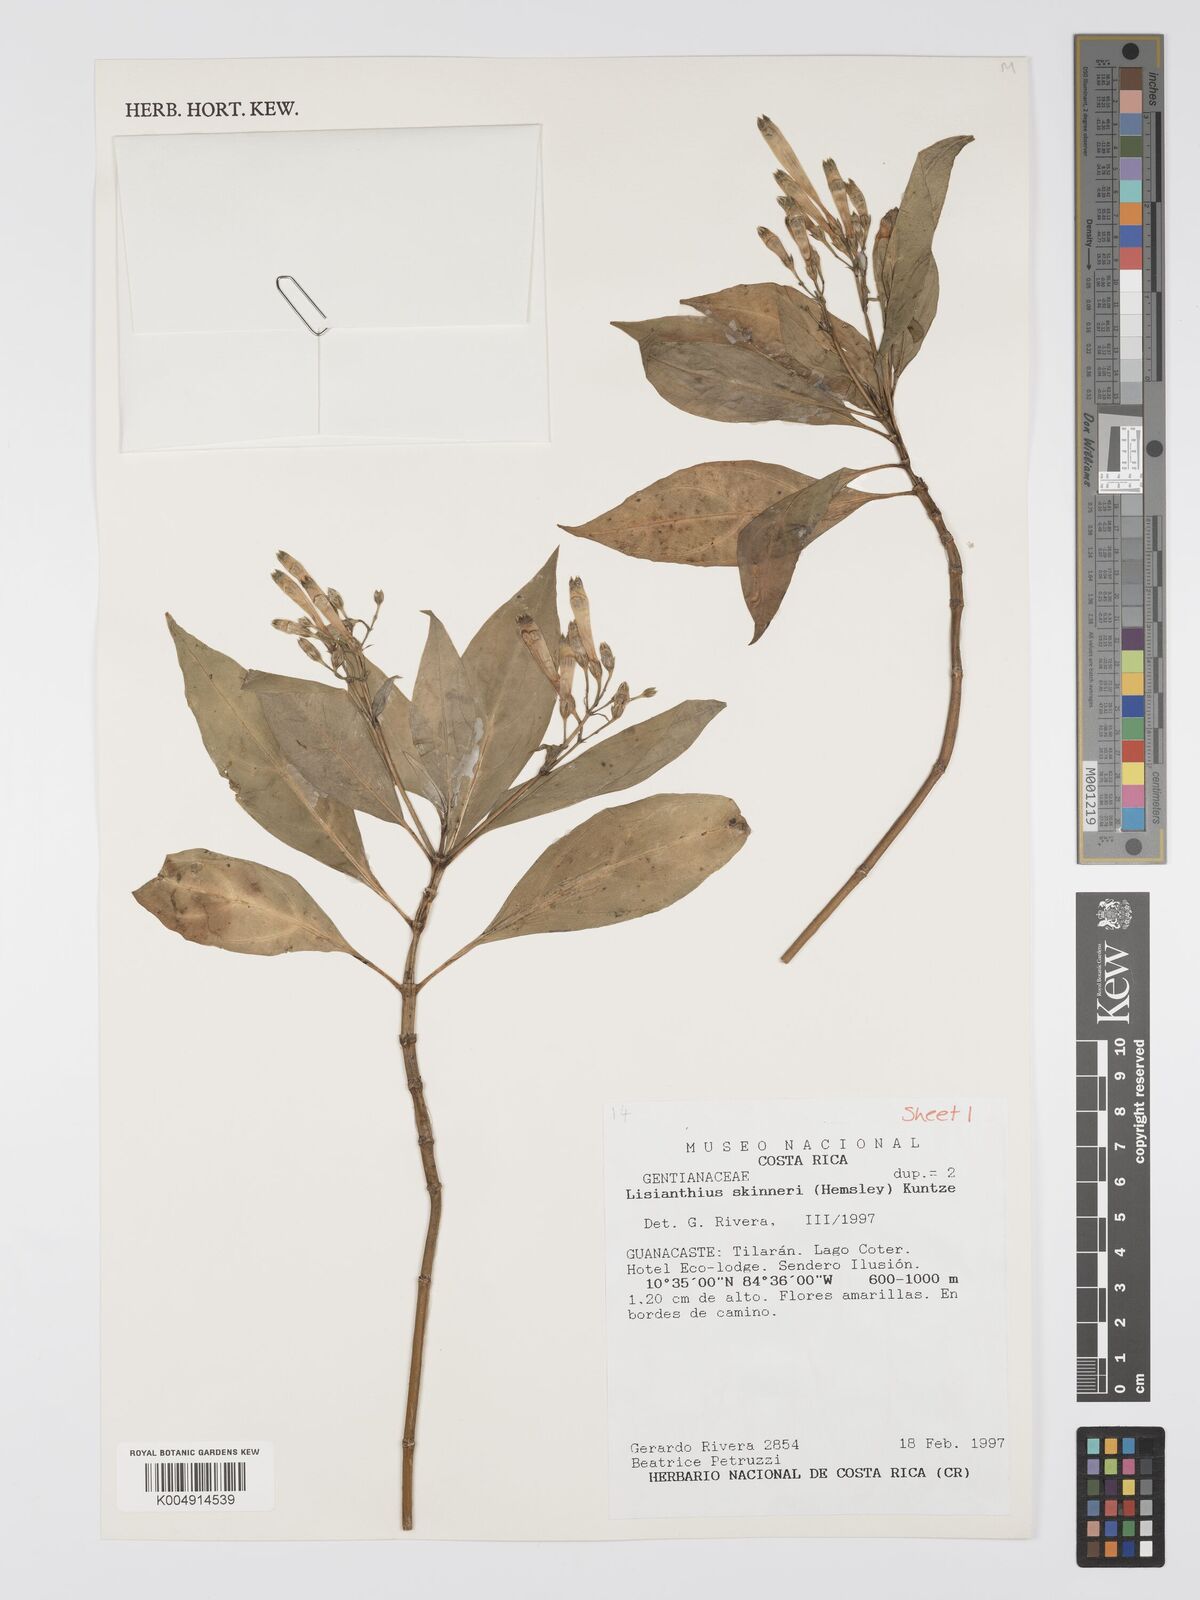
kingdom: Plantae
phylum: Tracheophyta
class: Magnoliopsida
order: Gentianales
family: Gentianaceae
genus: Lisianthus
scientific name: Lisianthus skinneri
